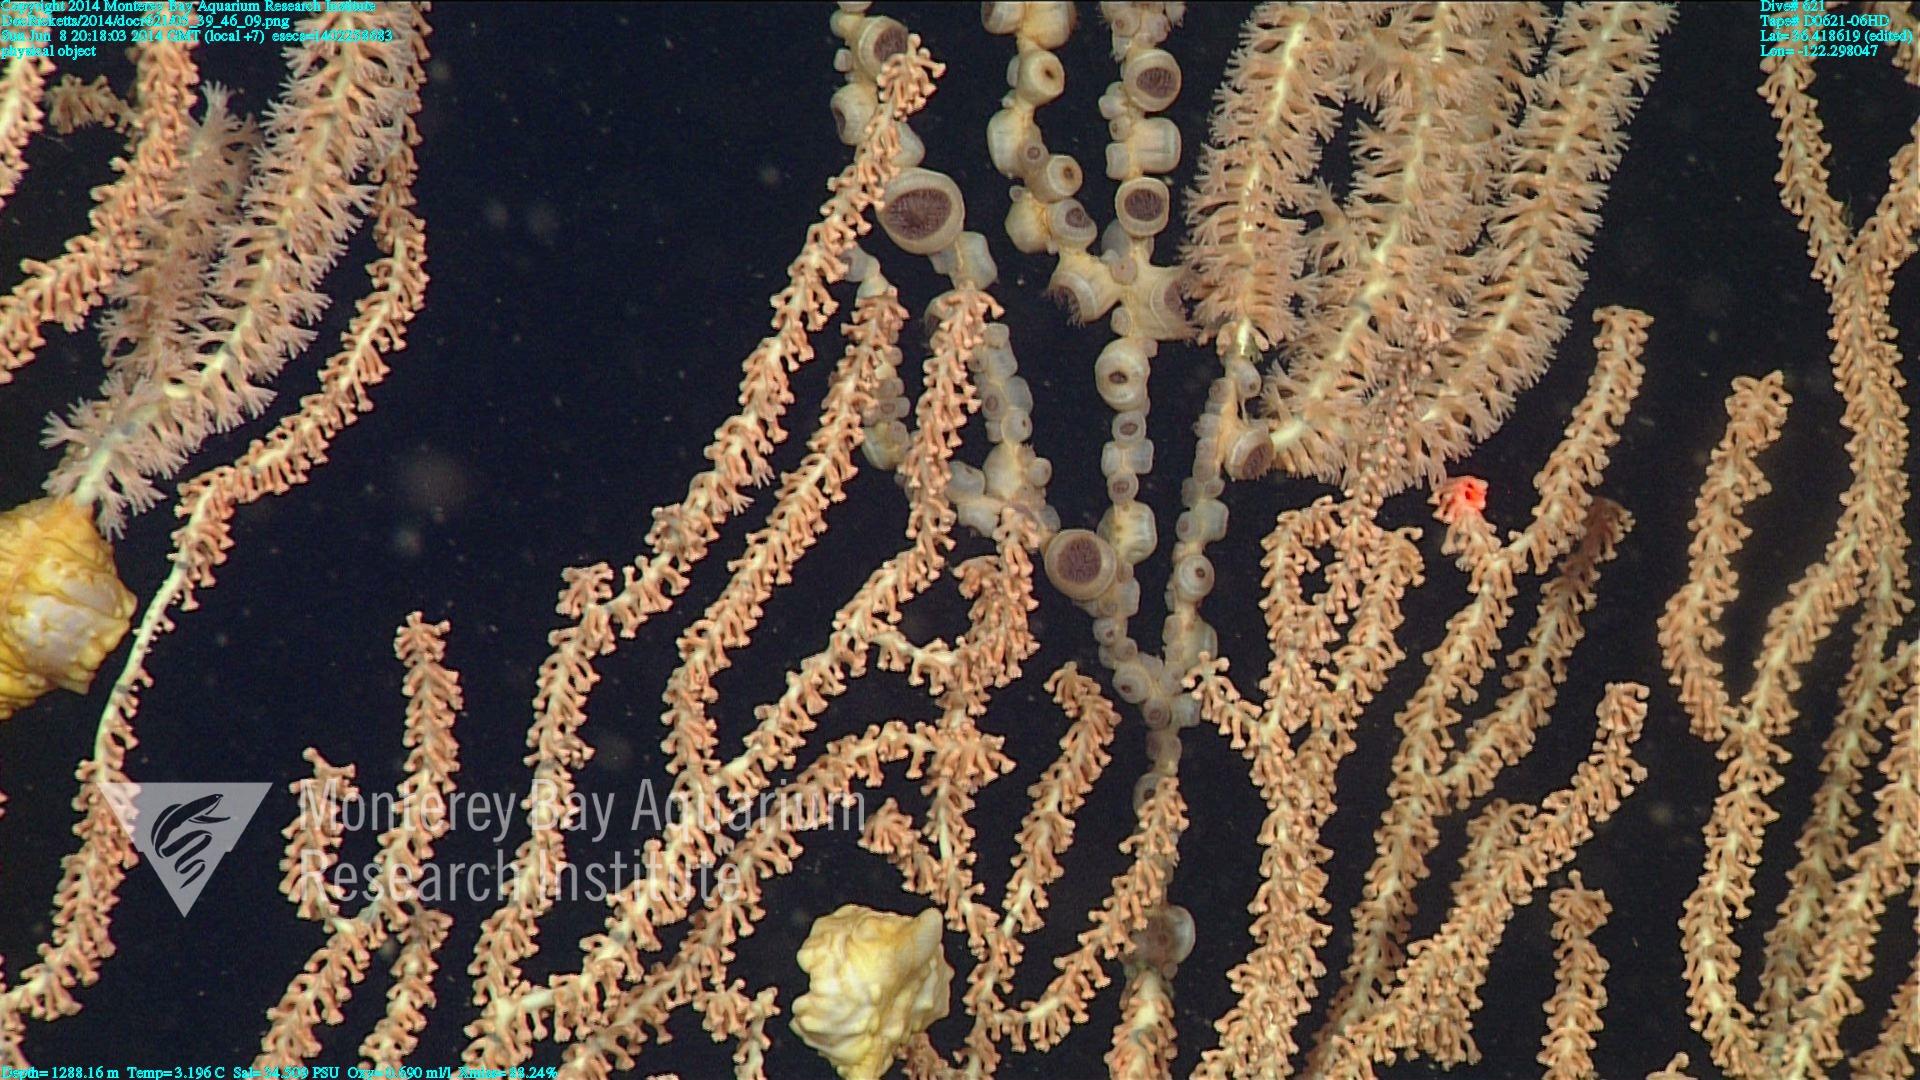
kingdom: Animalia
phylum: Cnidaria
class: Anthozoa
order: Scleralcyonacea
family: Keratoisididae
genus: Keratoisis
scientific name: Keratoisis
